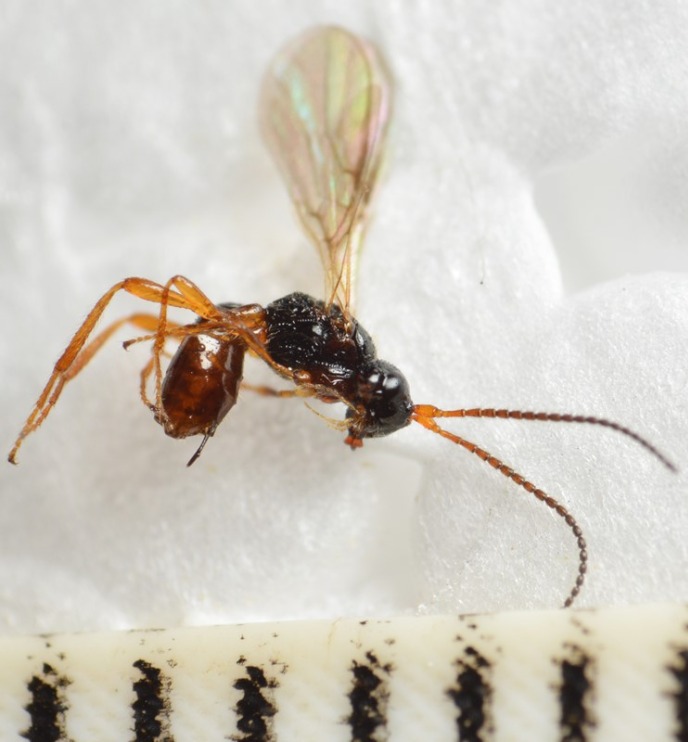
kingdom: Animalia
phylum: Arthropoda
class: Insecta
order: Hymenoptera
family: Braconidae
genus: Aspilota
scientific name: Aspilota ruficornis
